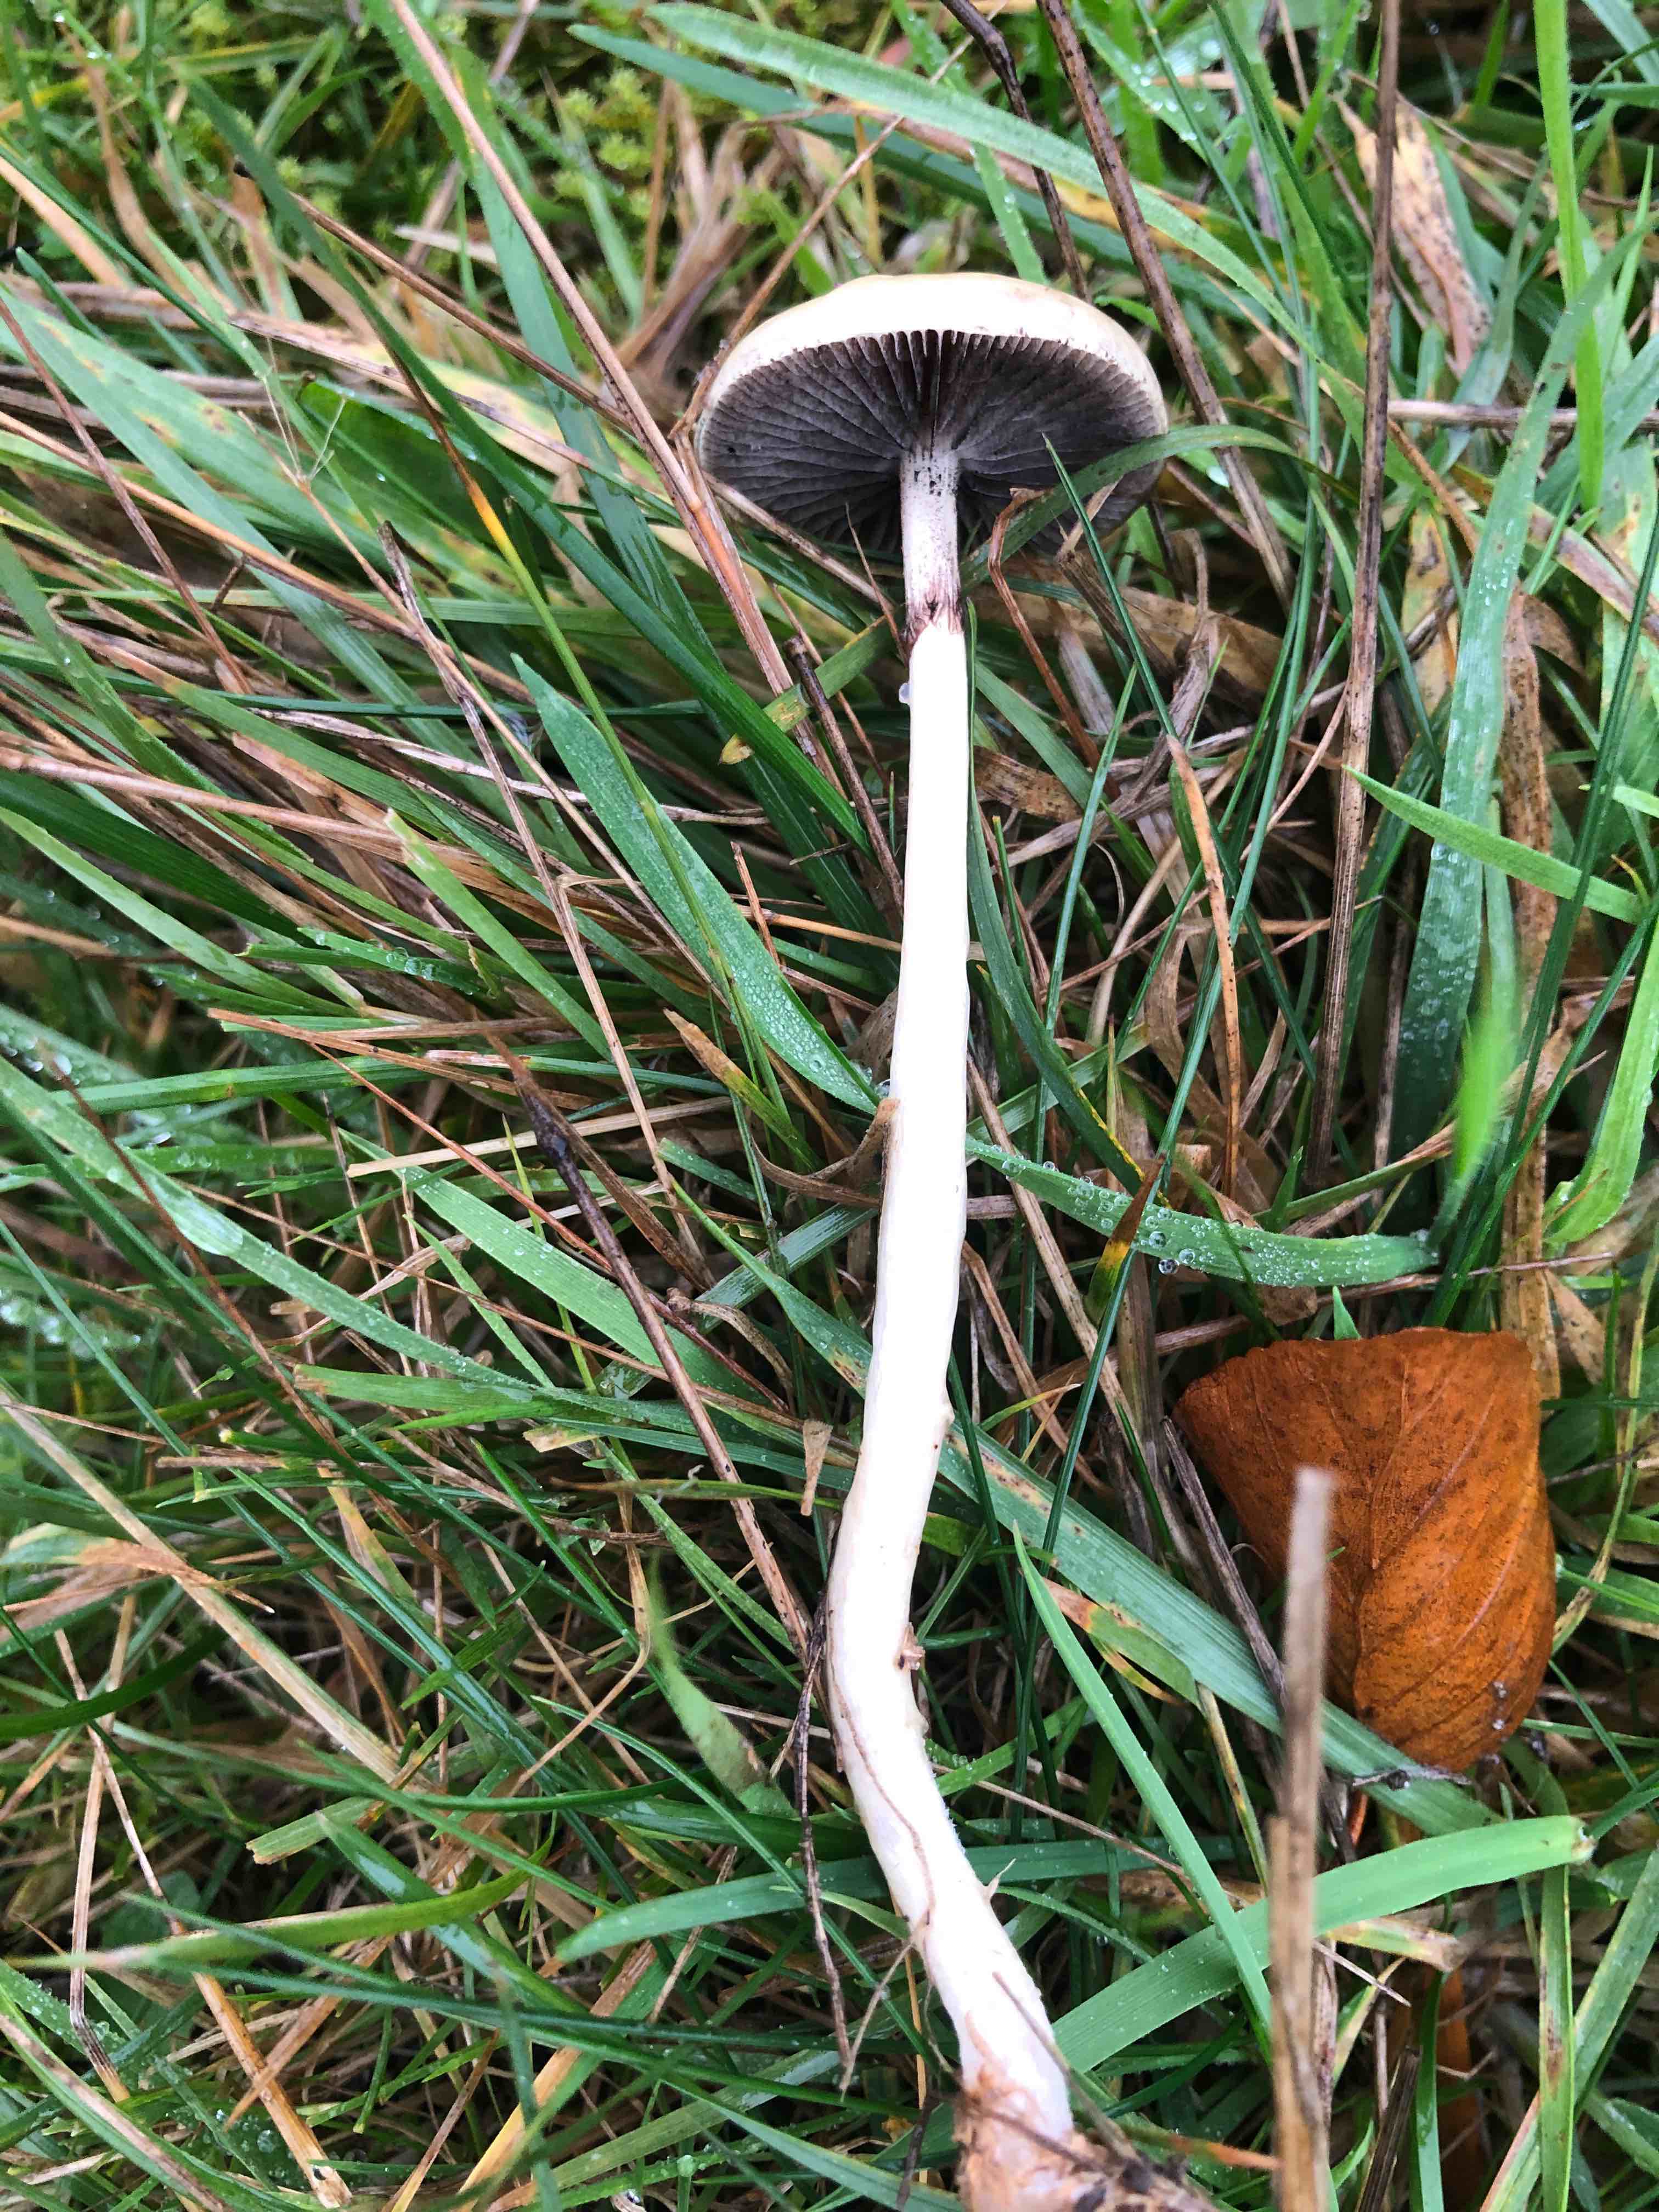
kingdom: Fungi
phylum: Basidiomycota
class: Agaricomycetes
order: Agaricales
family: Strophariaceae
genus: Protostropharia
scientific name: Protostropharia semiglobata
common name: halvkugleformet bredblad
